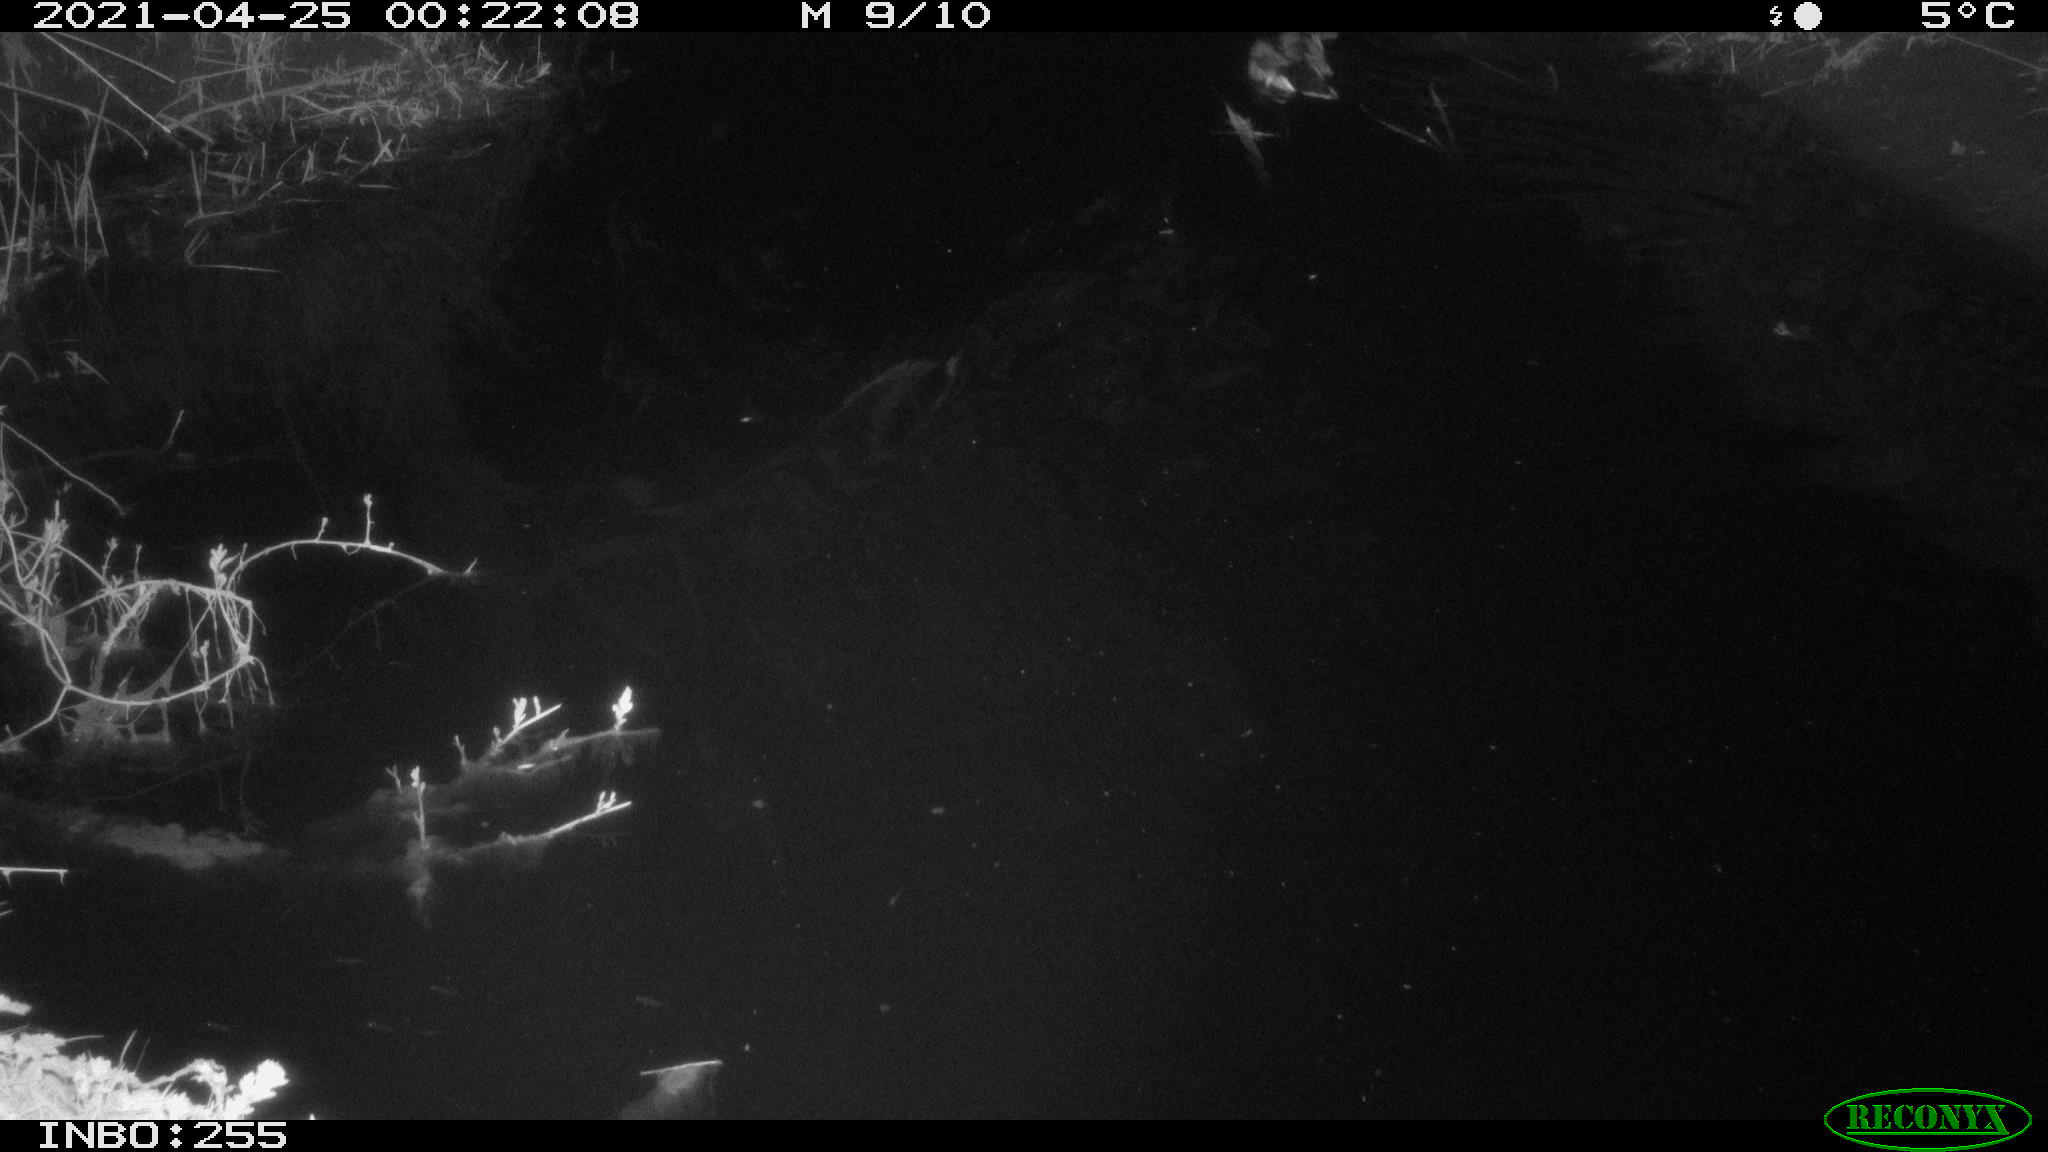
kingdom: Animalia
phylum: Chordata
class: Aves
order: Anseriformes
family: Anatidae
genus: Anas
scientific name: Anas platyrhynchos
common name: Mallard
